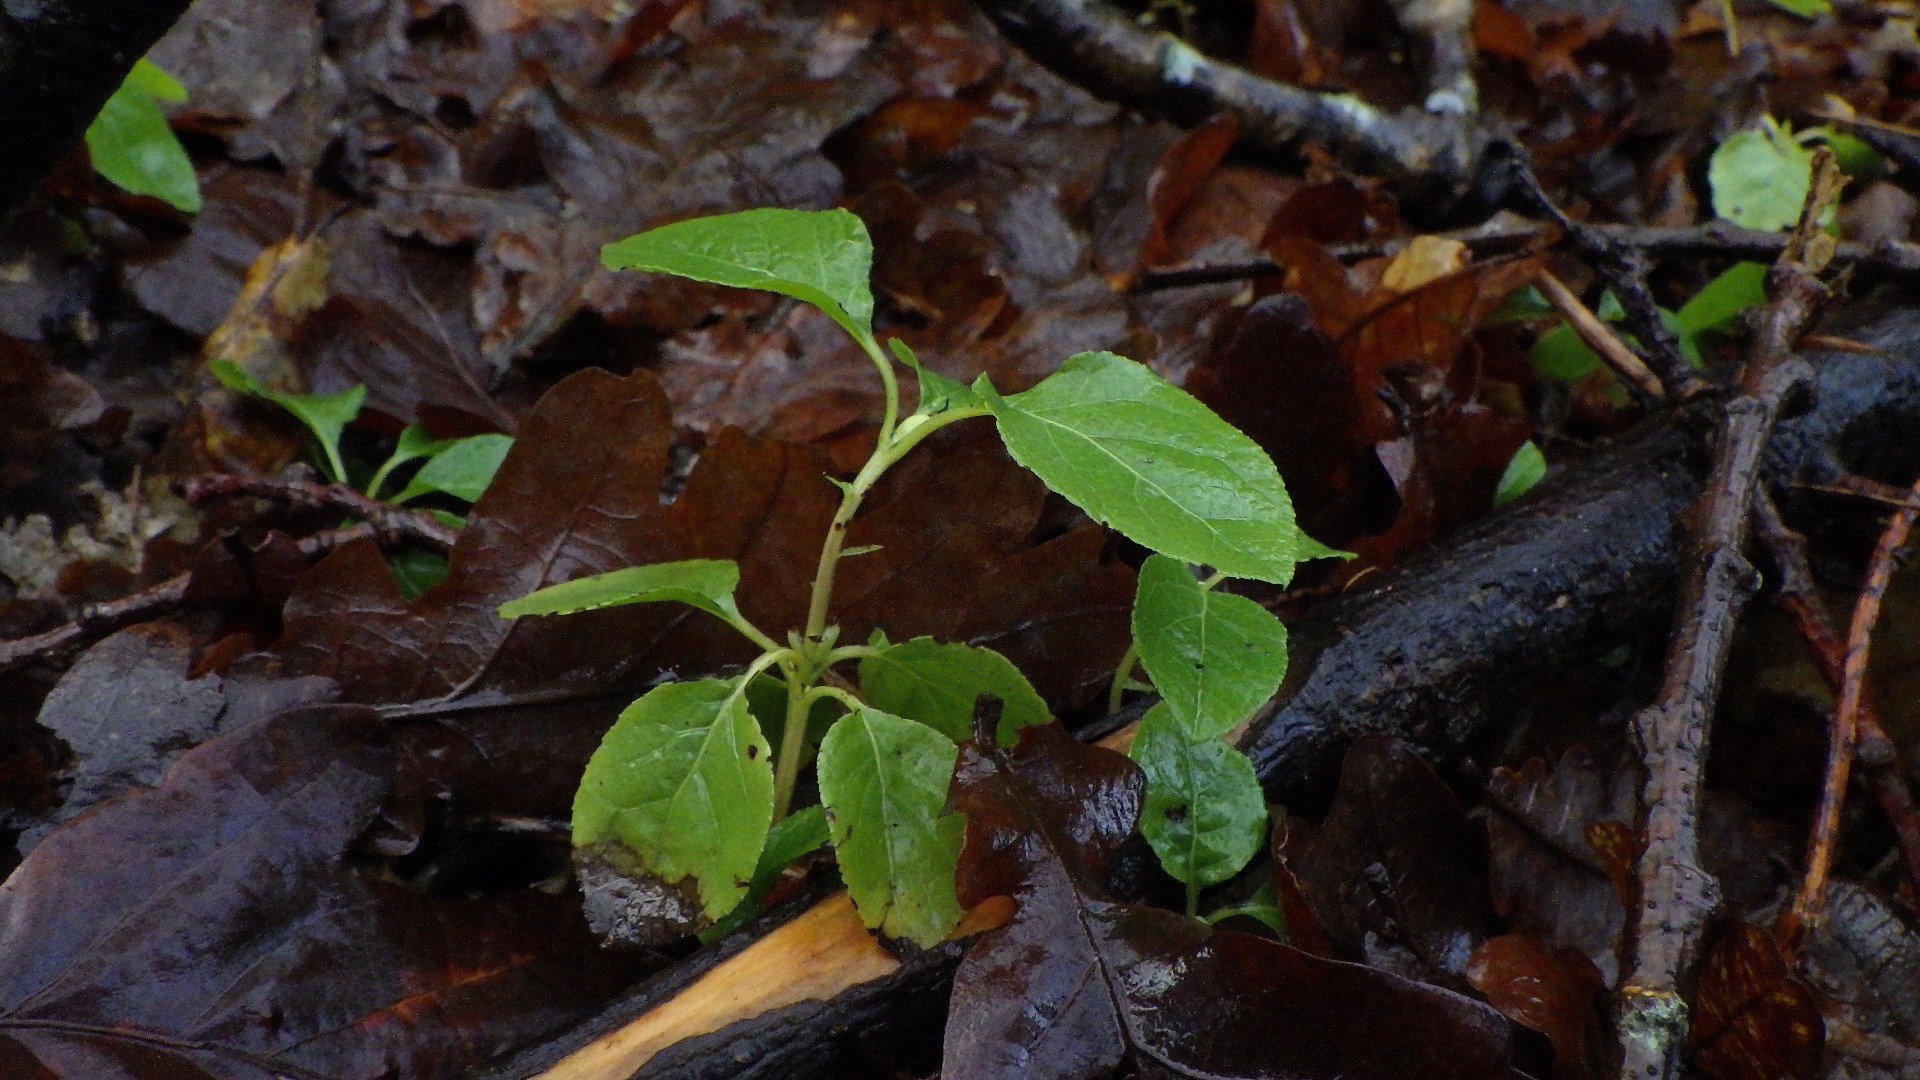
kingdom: Plantae
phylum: Tracheophyta
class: Magnoliopsida
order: Ericales
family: Ericaceae
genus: Orthilia
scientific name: Orthilia secunda
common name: Ensidig vintergrøn
